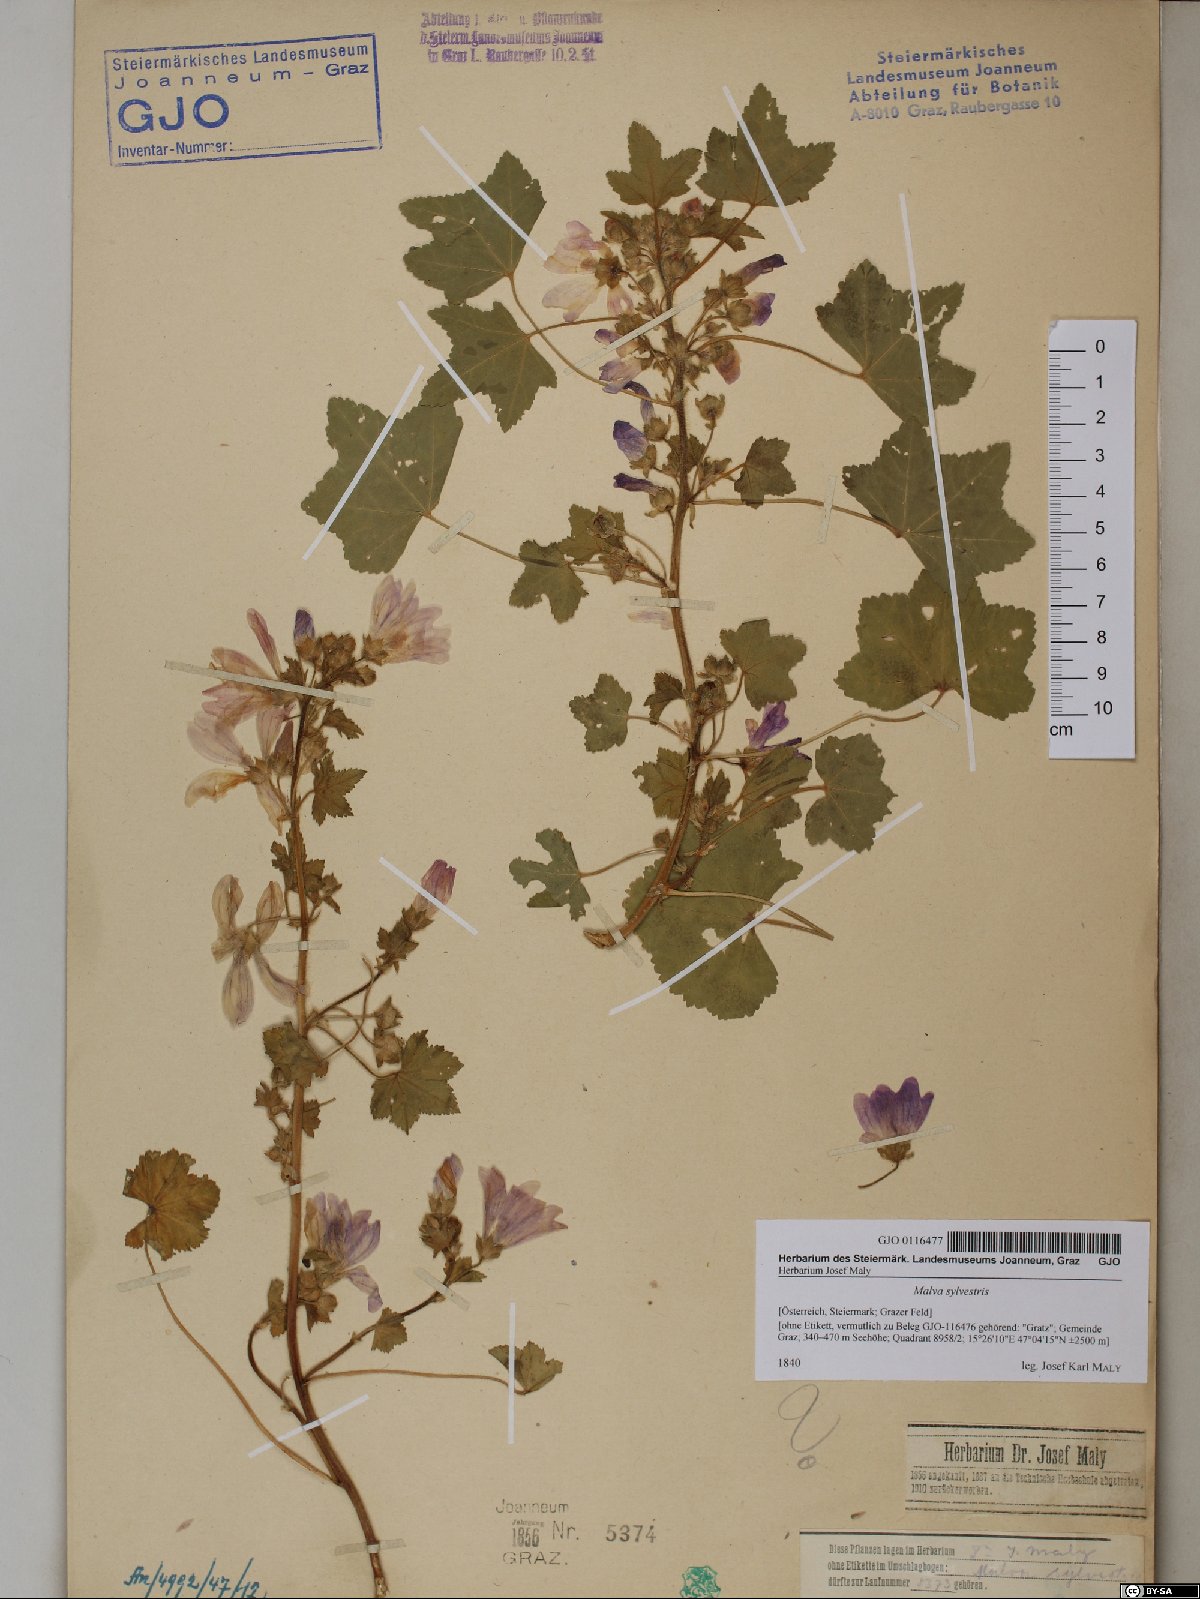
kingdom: Plantae
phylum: Tracheophyta
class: Magnoliopsida
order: Malvales
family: Malvaceae
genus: Malva
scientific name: Malva sylvestris
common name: Common mallow
